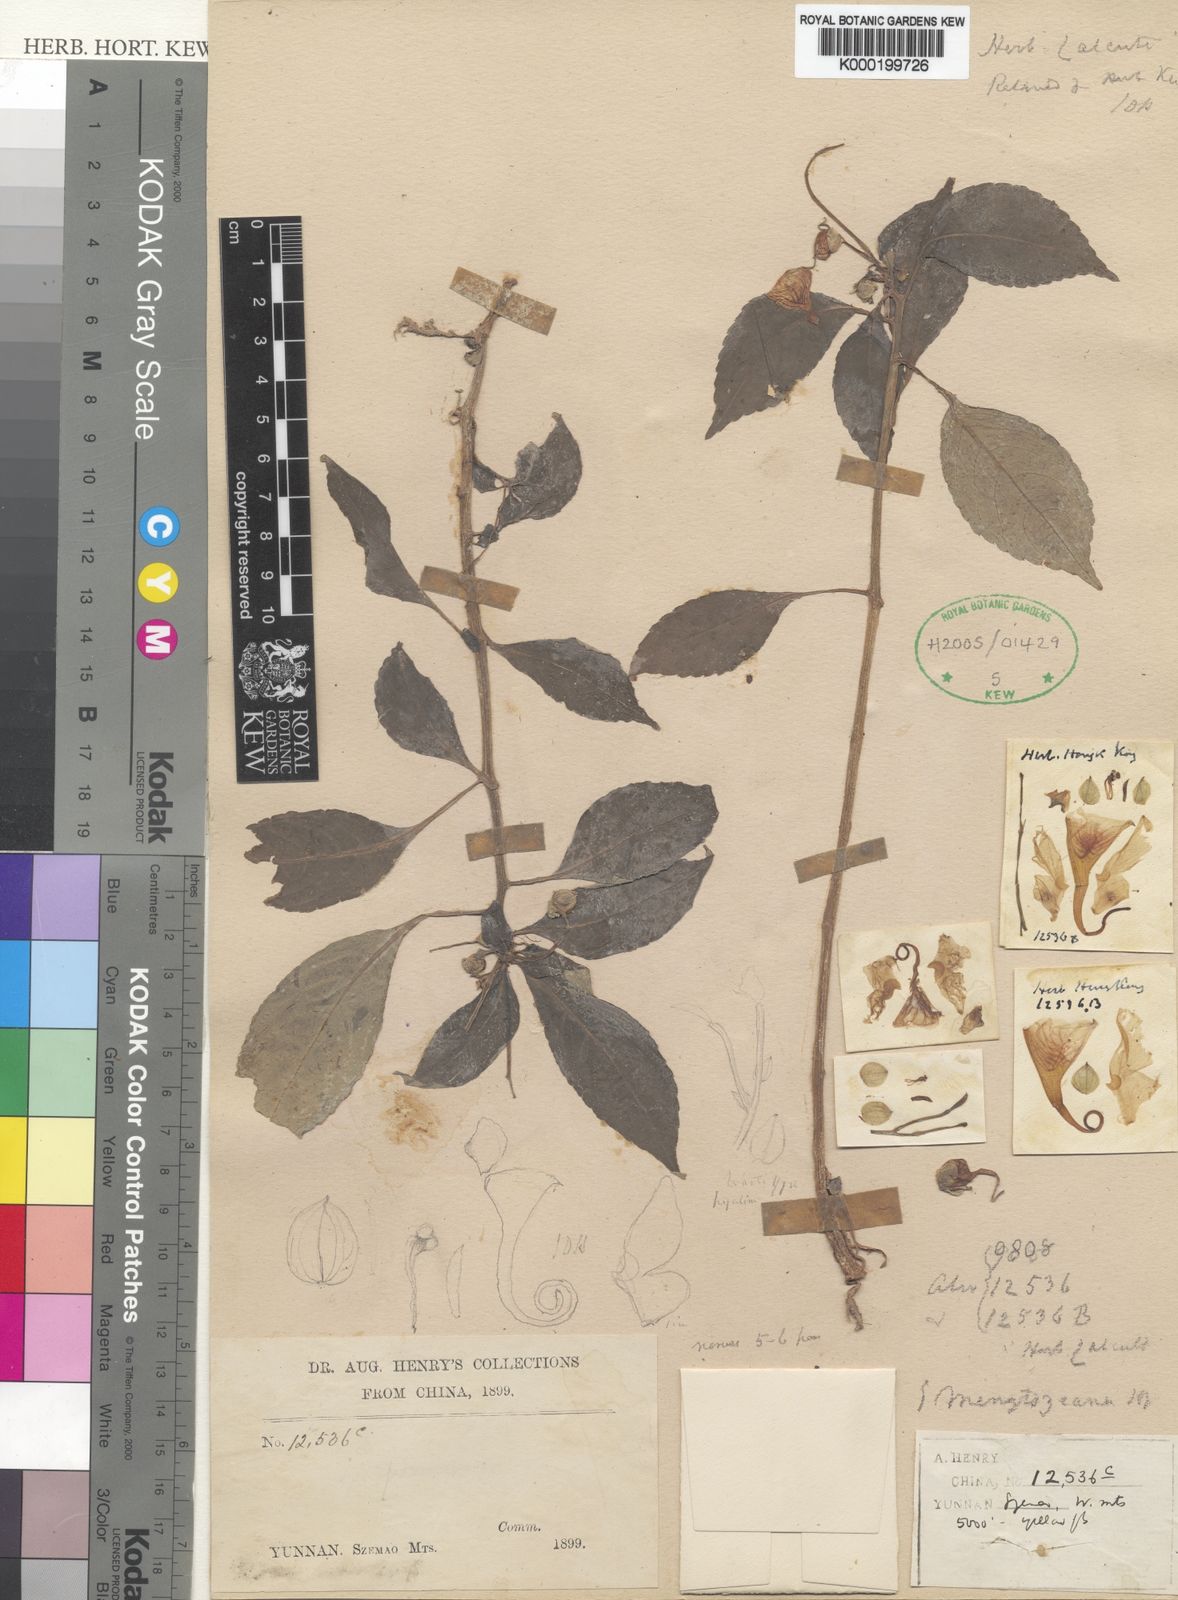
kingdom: Plantae
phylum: Tracheophyta
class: Magnoliopsida
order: Ericales
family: Balsaminaceae
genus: Impatiens
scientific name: Impatiens pulchra
